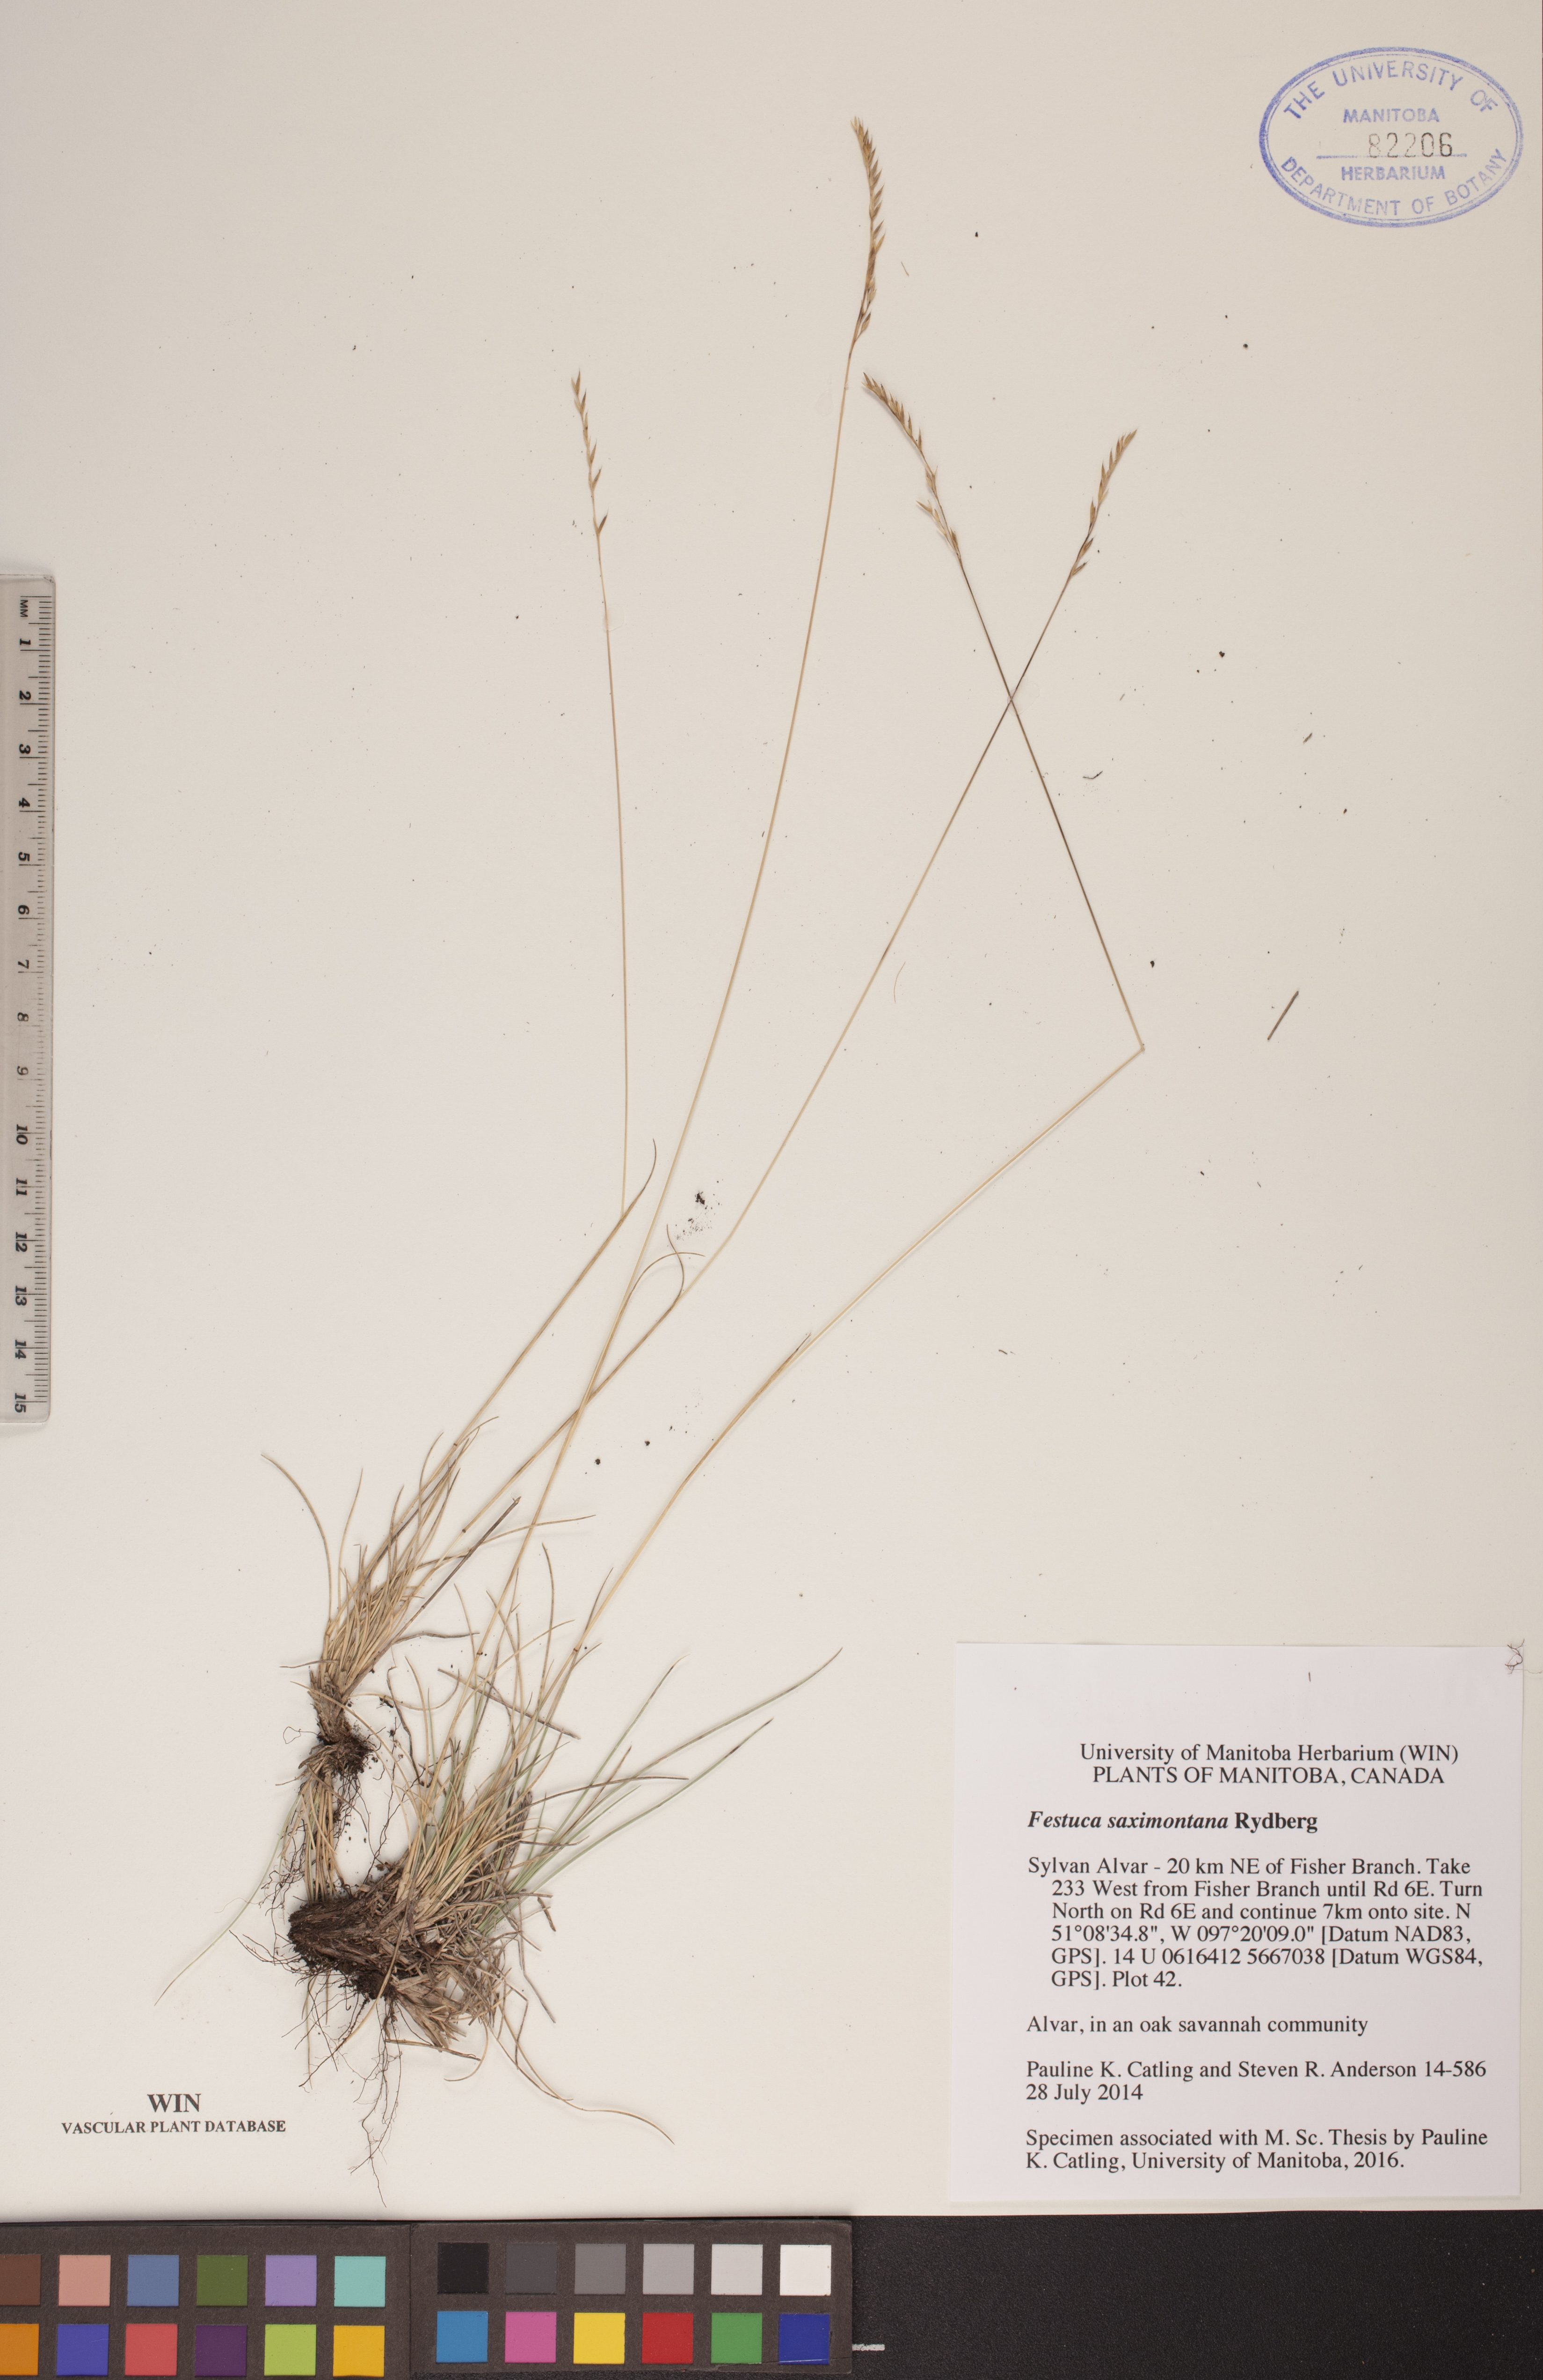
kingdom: Plantae
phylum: Tracheophyta
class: Liliopsida
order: Poales
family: Poaceae
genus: Festuca
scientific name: Festuca saximontana
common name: Mountain fescue
